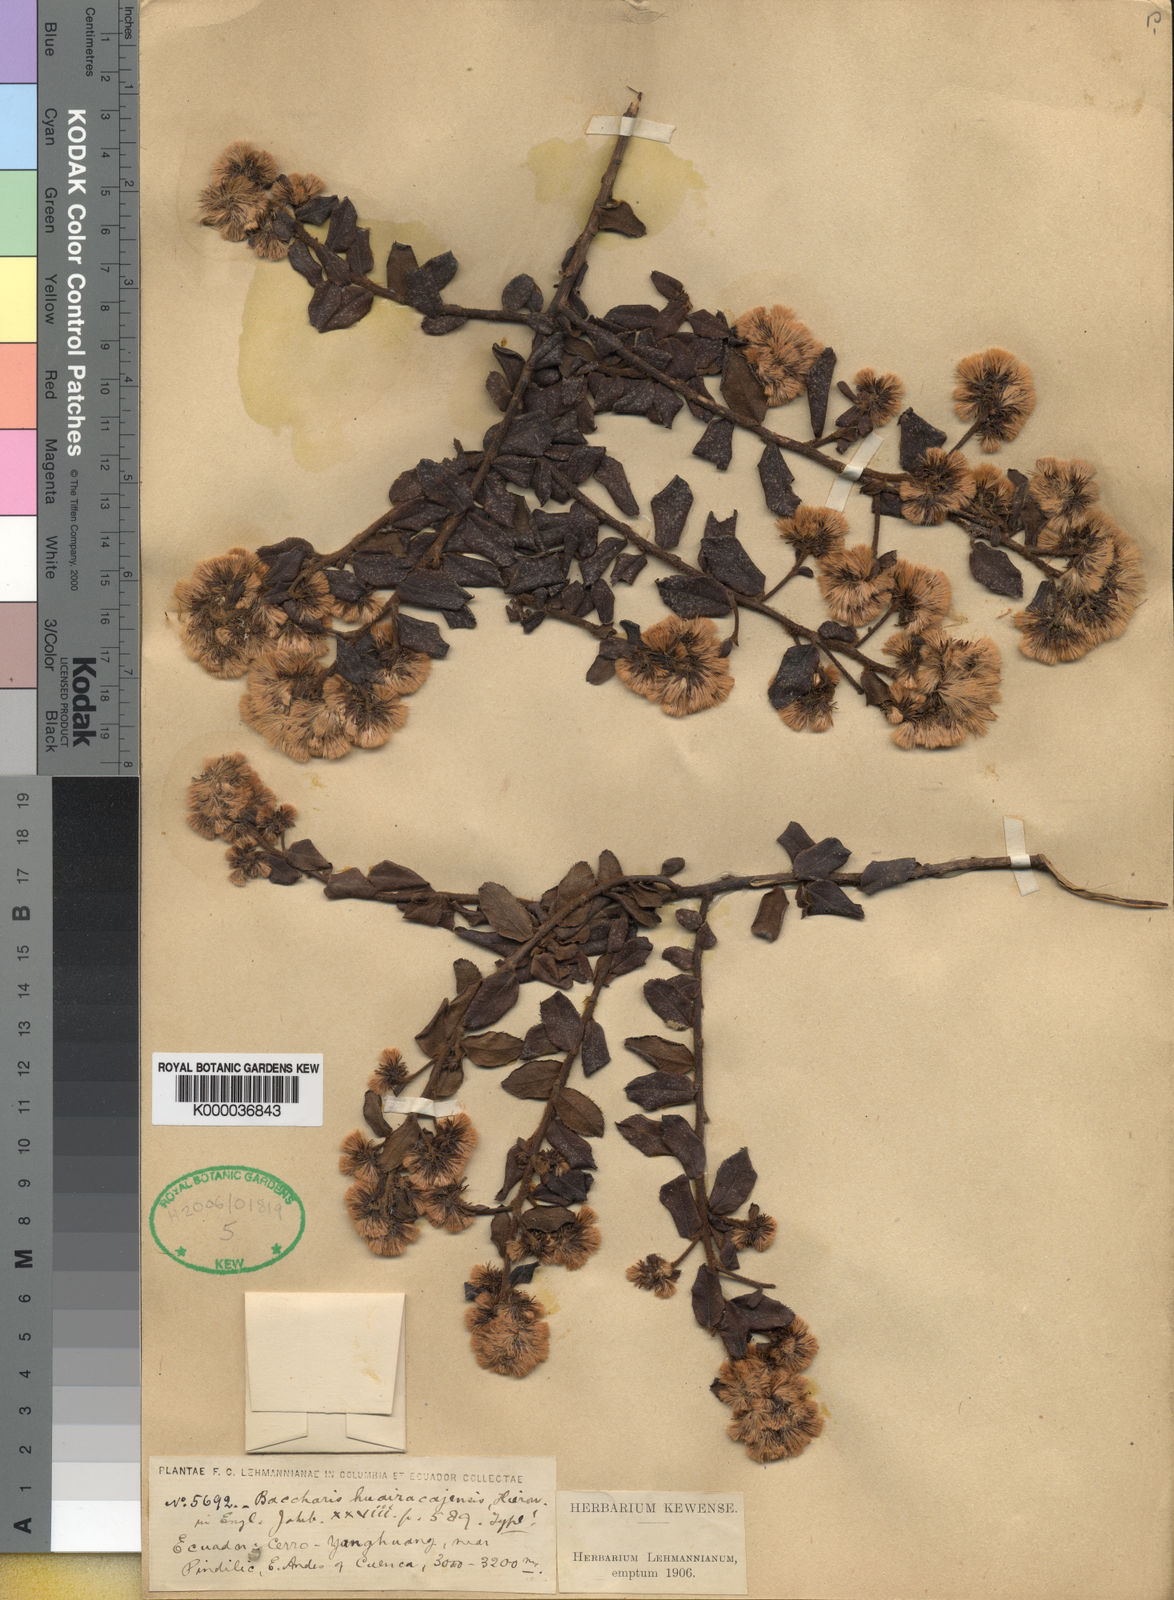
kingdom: Plantae
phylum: Tracheophyta
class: Magnoliopsida
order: Asterales
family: Asteraceae
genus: Baccharis
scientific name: Baccharis huairacajensis
